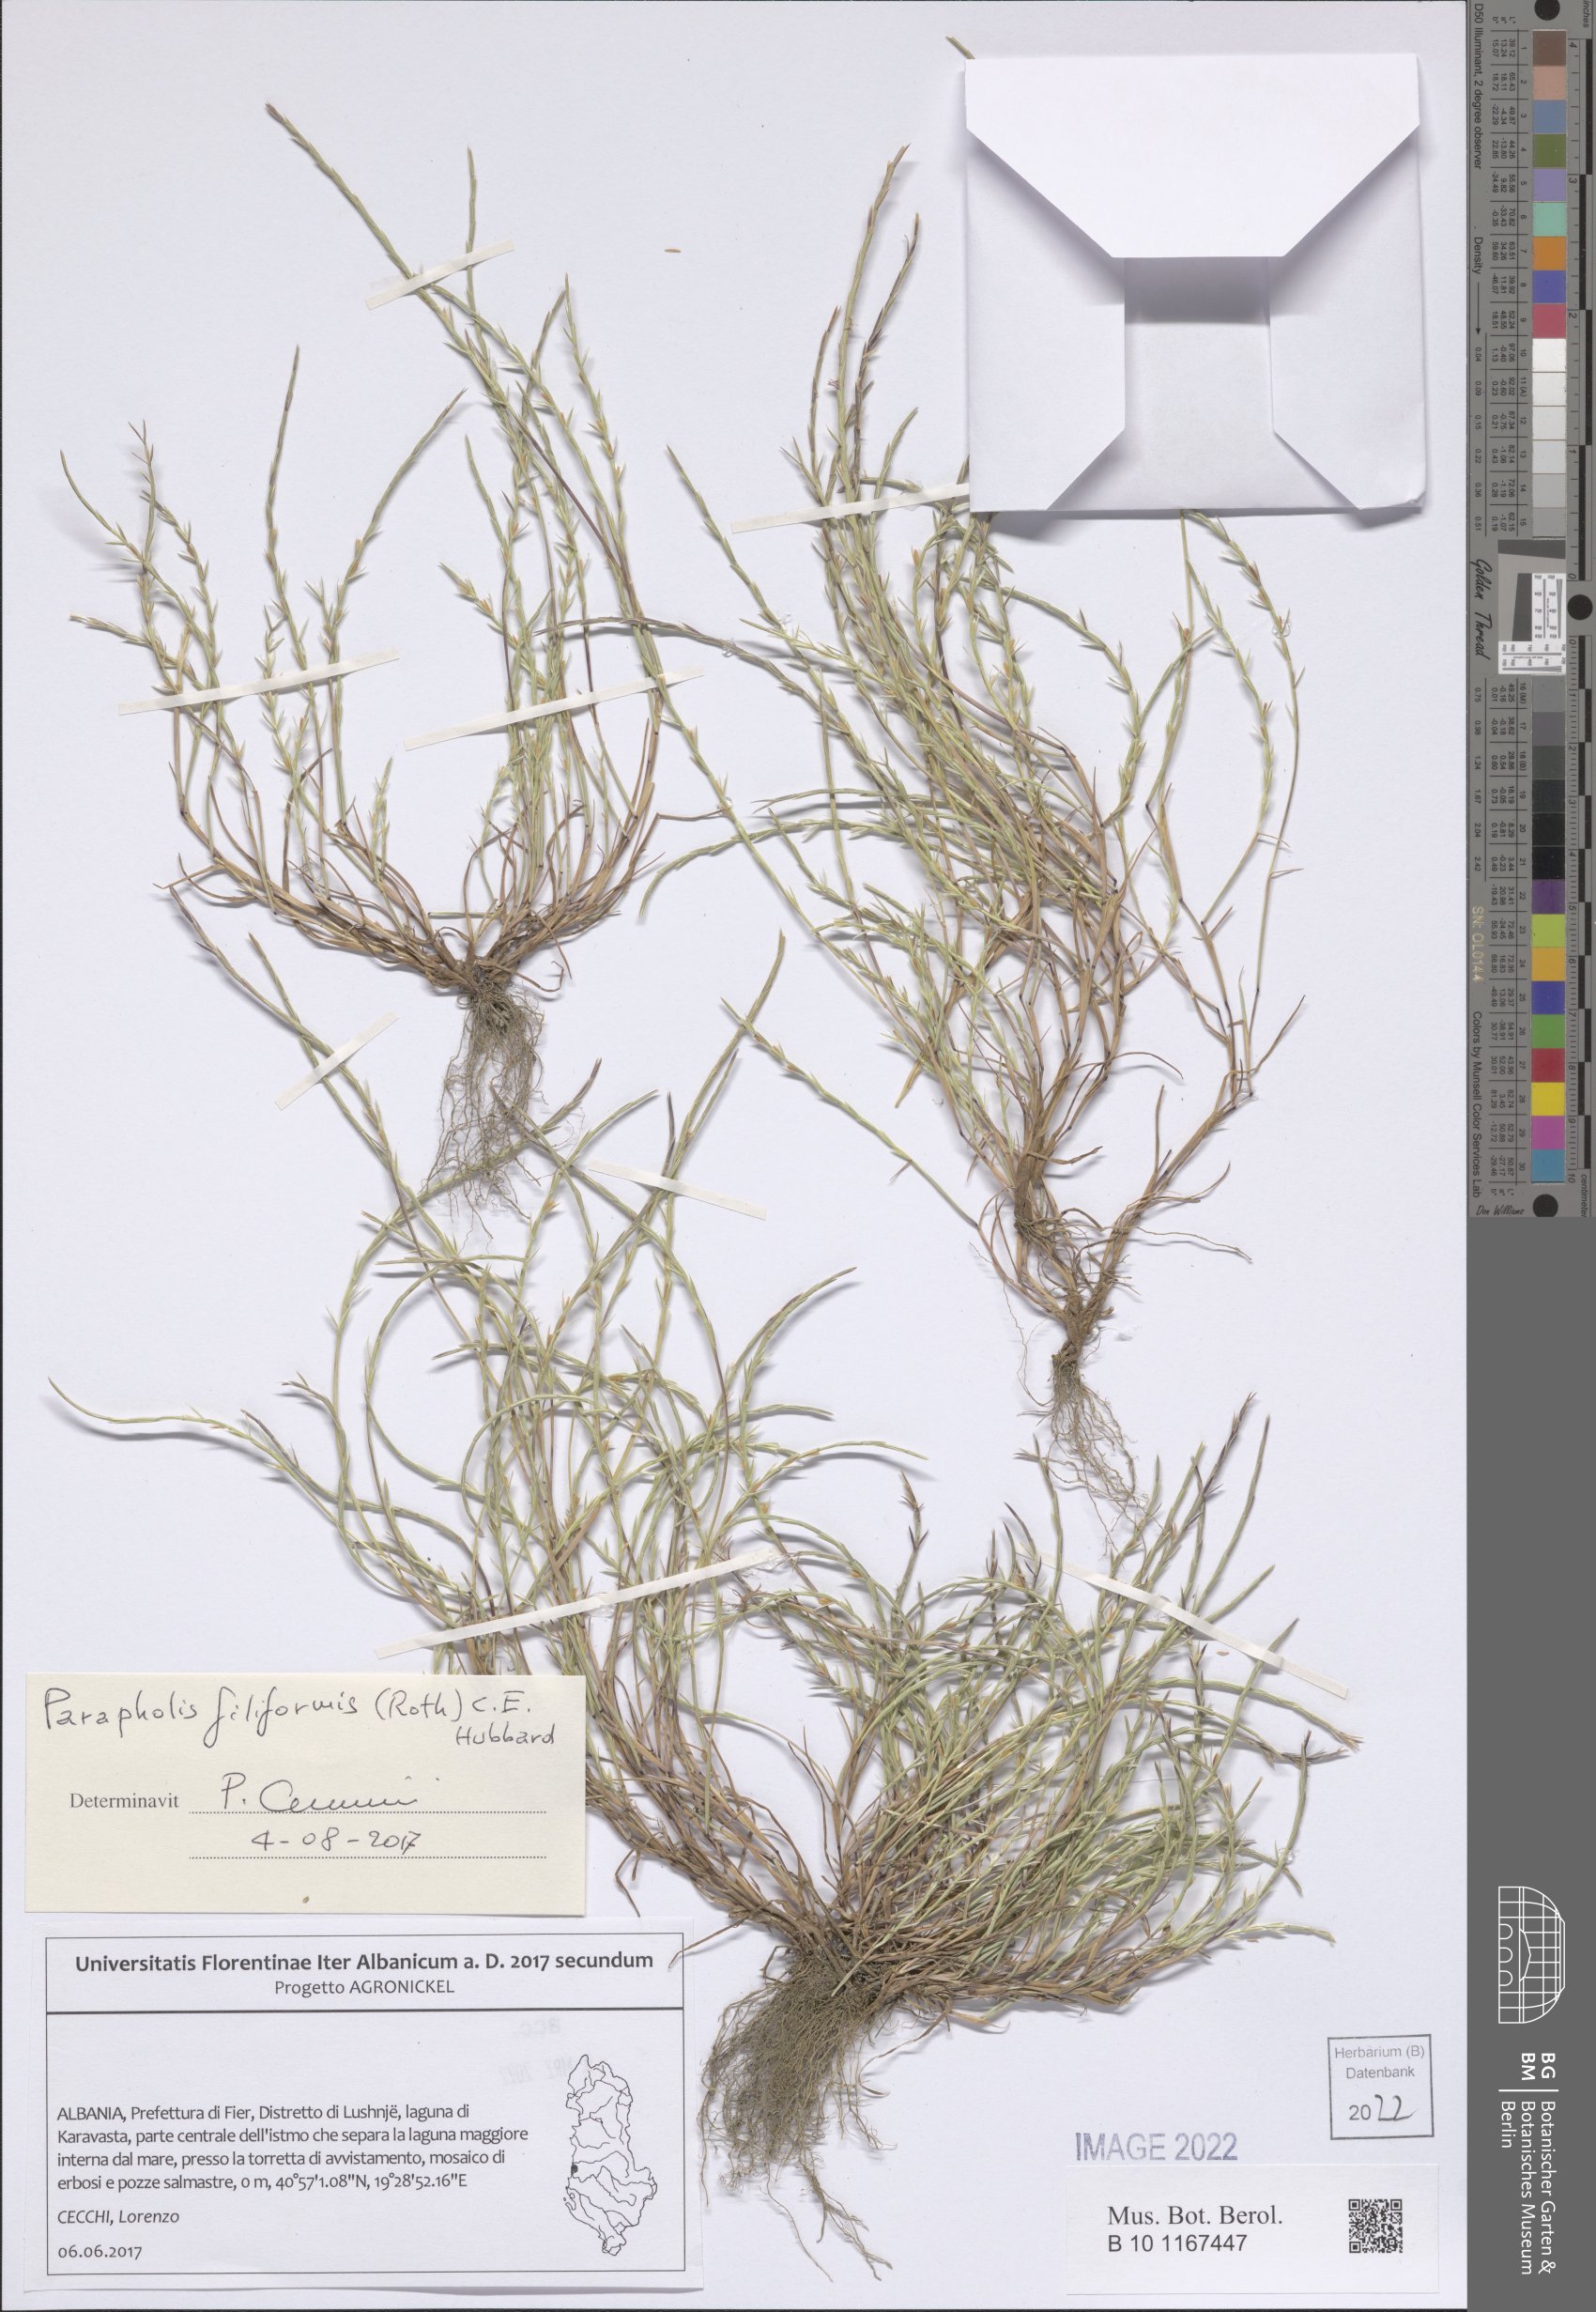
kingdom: Plantae
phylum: Tracheophyta
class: Liliopsida
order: Poales
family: Poaceae
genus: Parapholis
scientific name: Parapholis filiformis
